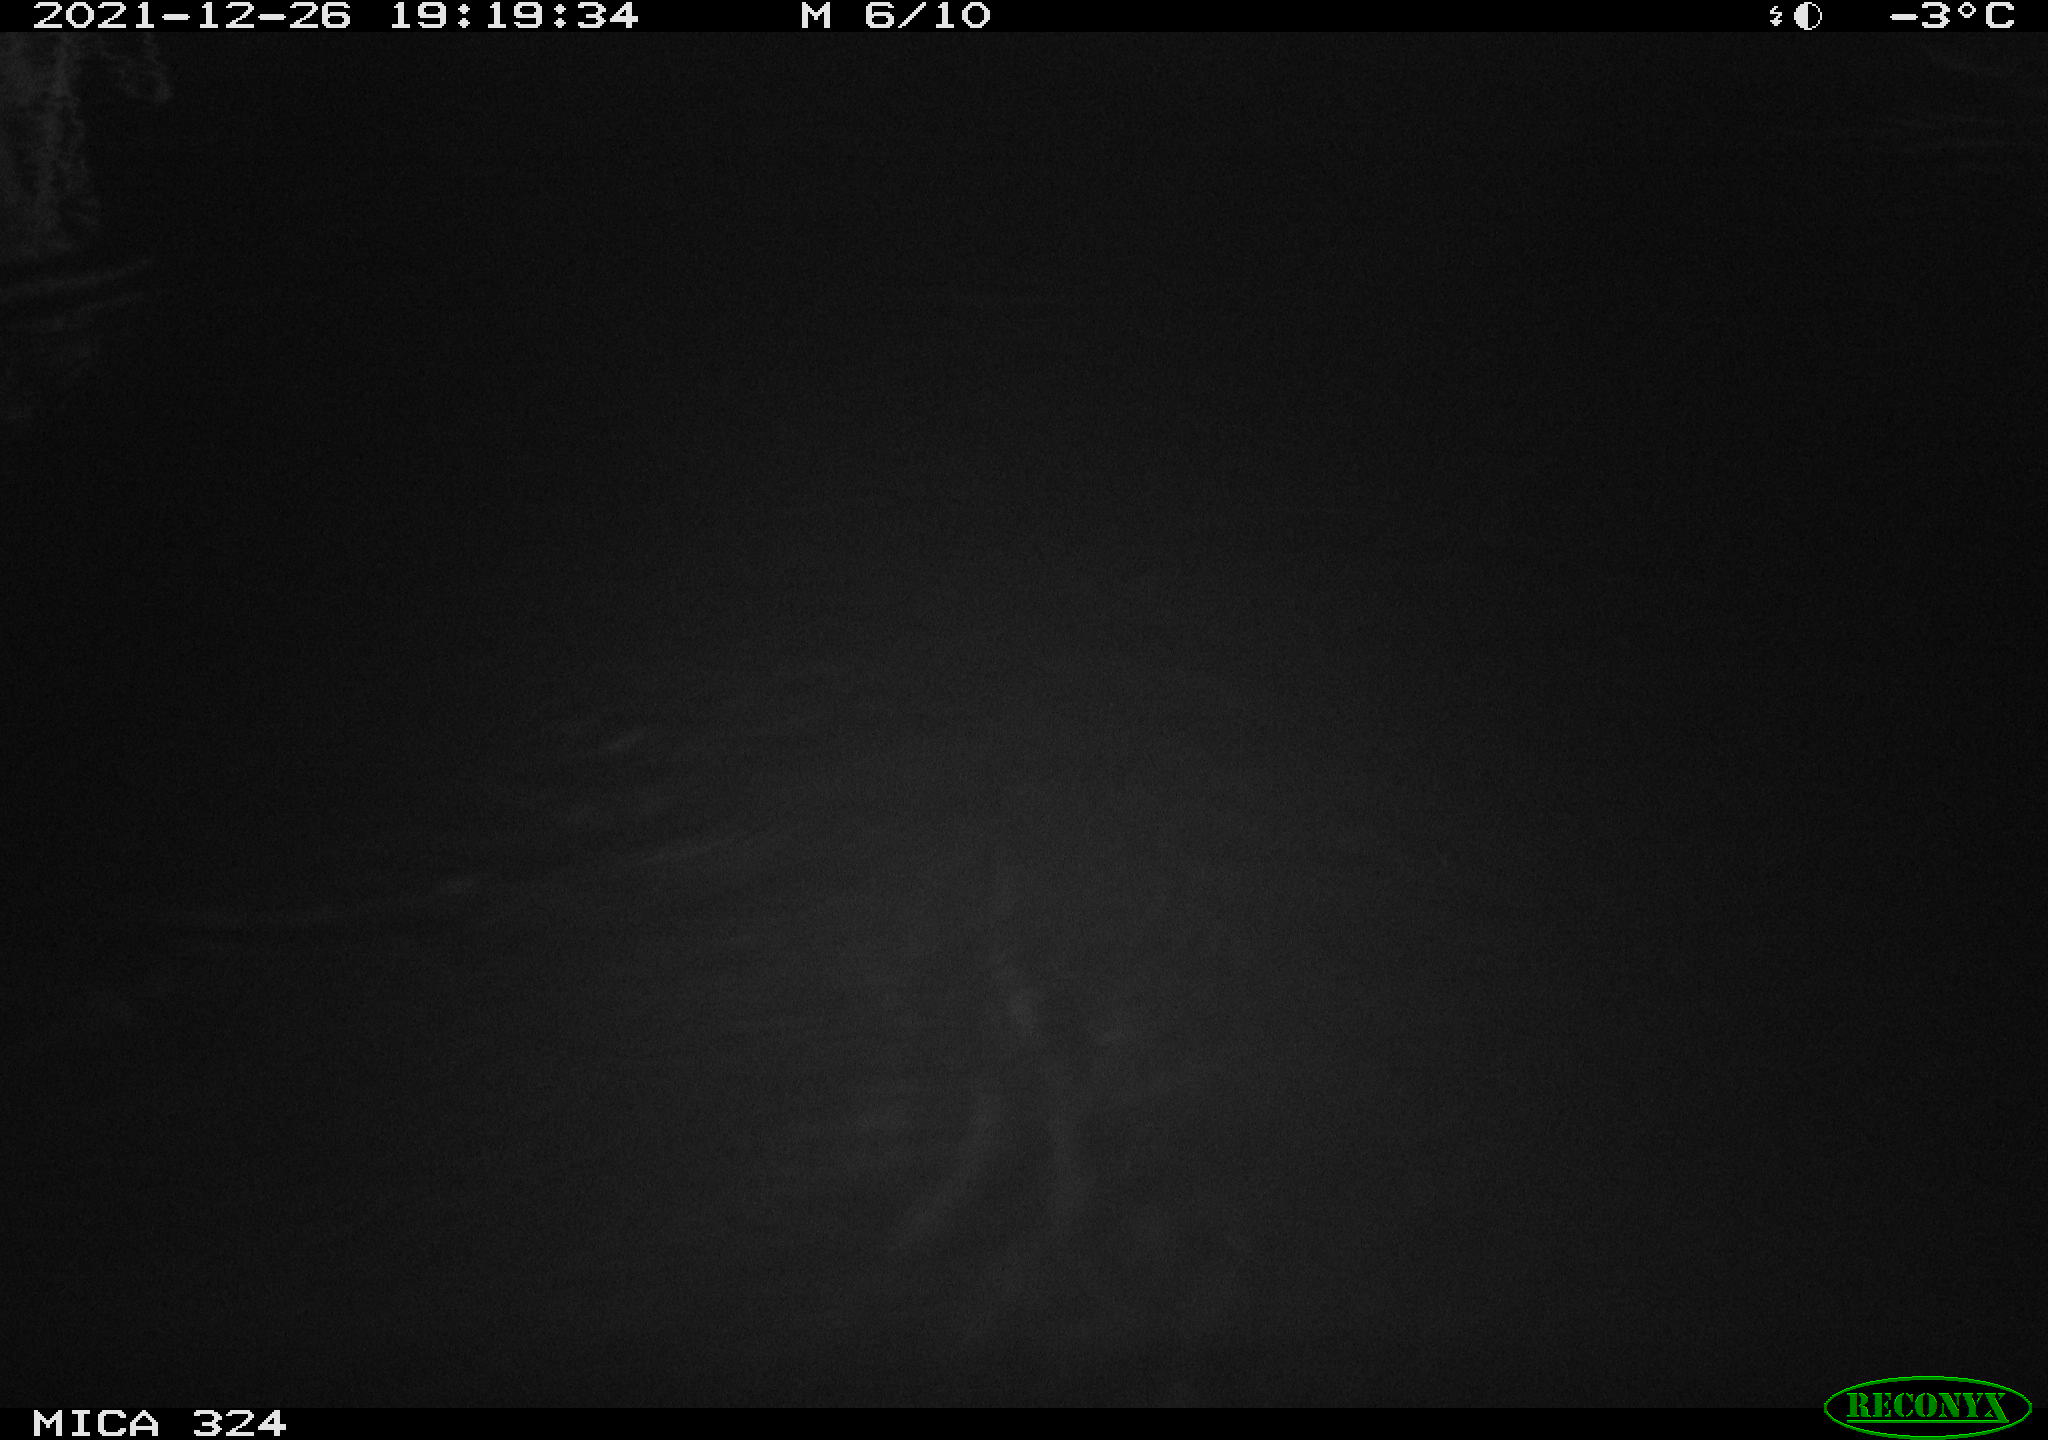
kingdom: Animalia
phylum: Chordata
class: Mammalia
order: Rodentia
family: Cricetidae
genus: Ondatra
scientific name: Ondatra zibethicus
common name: Muskrat
